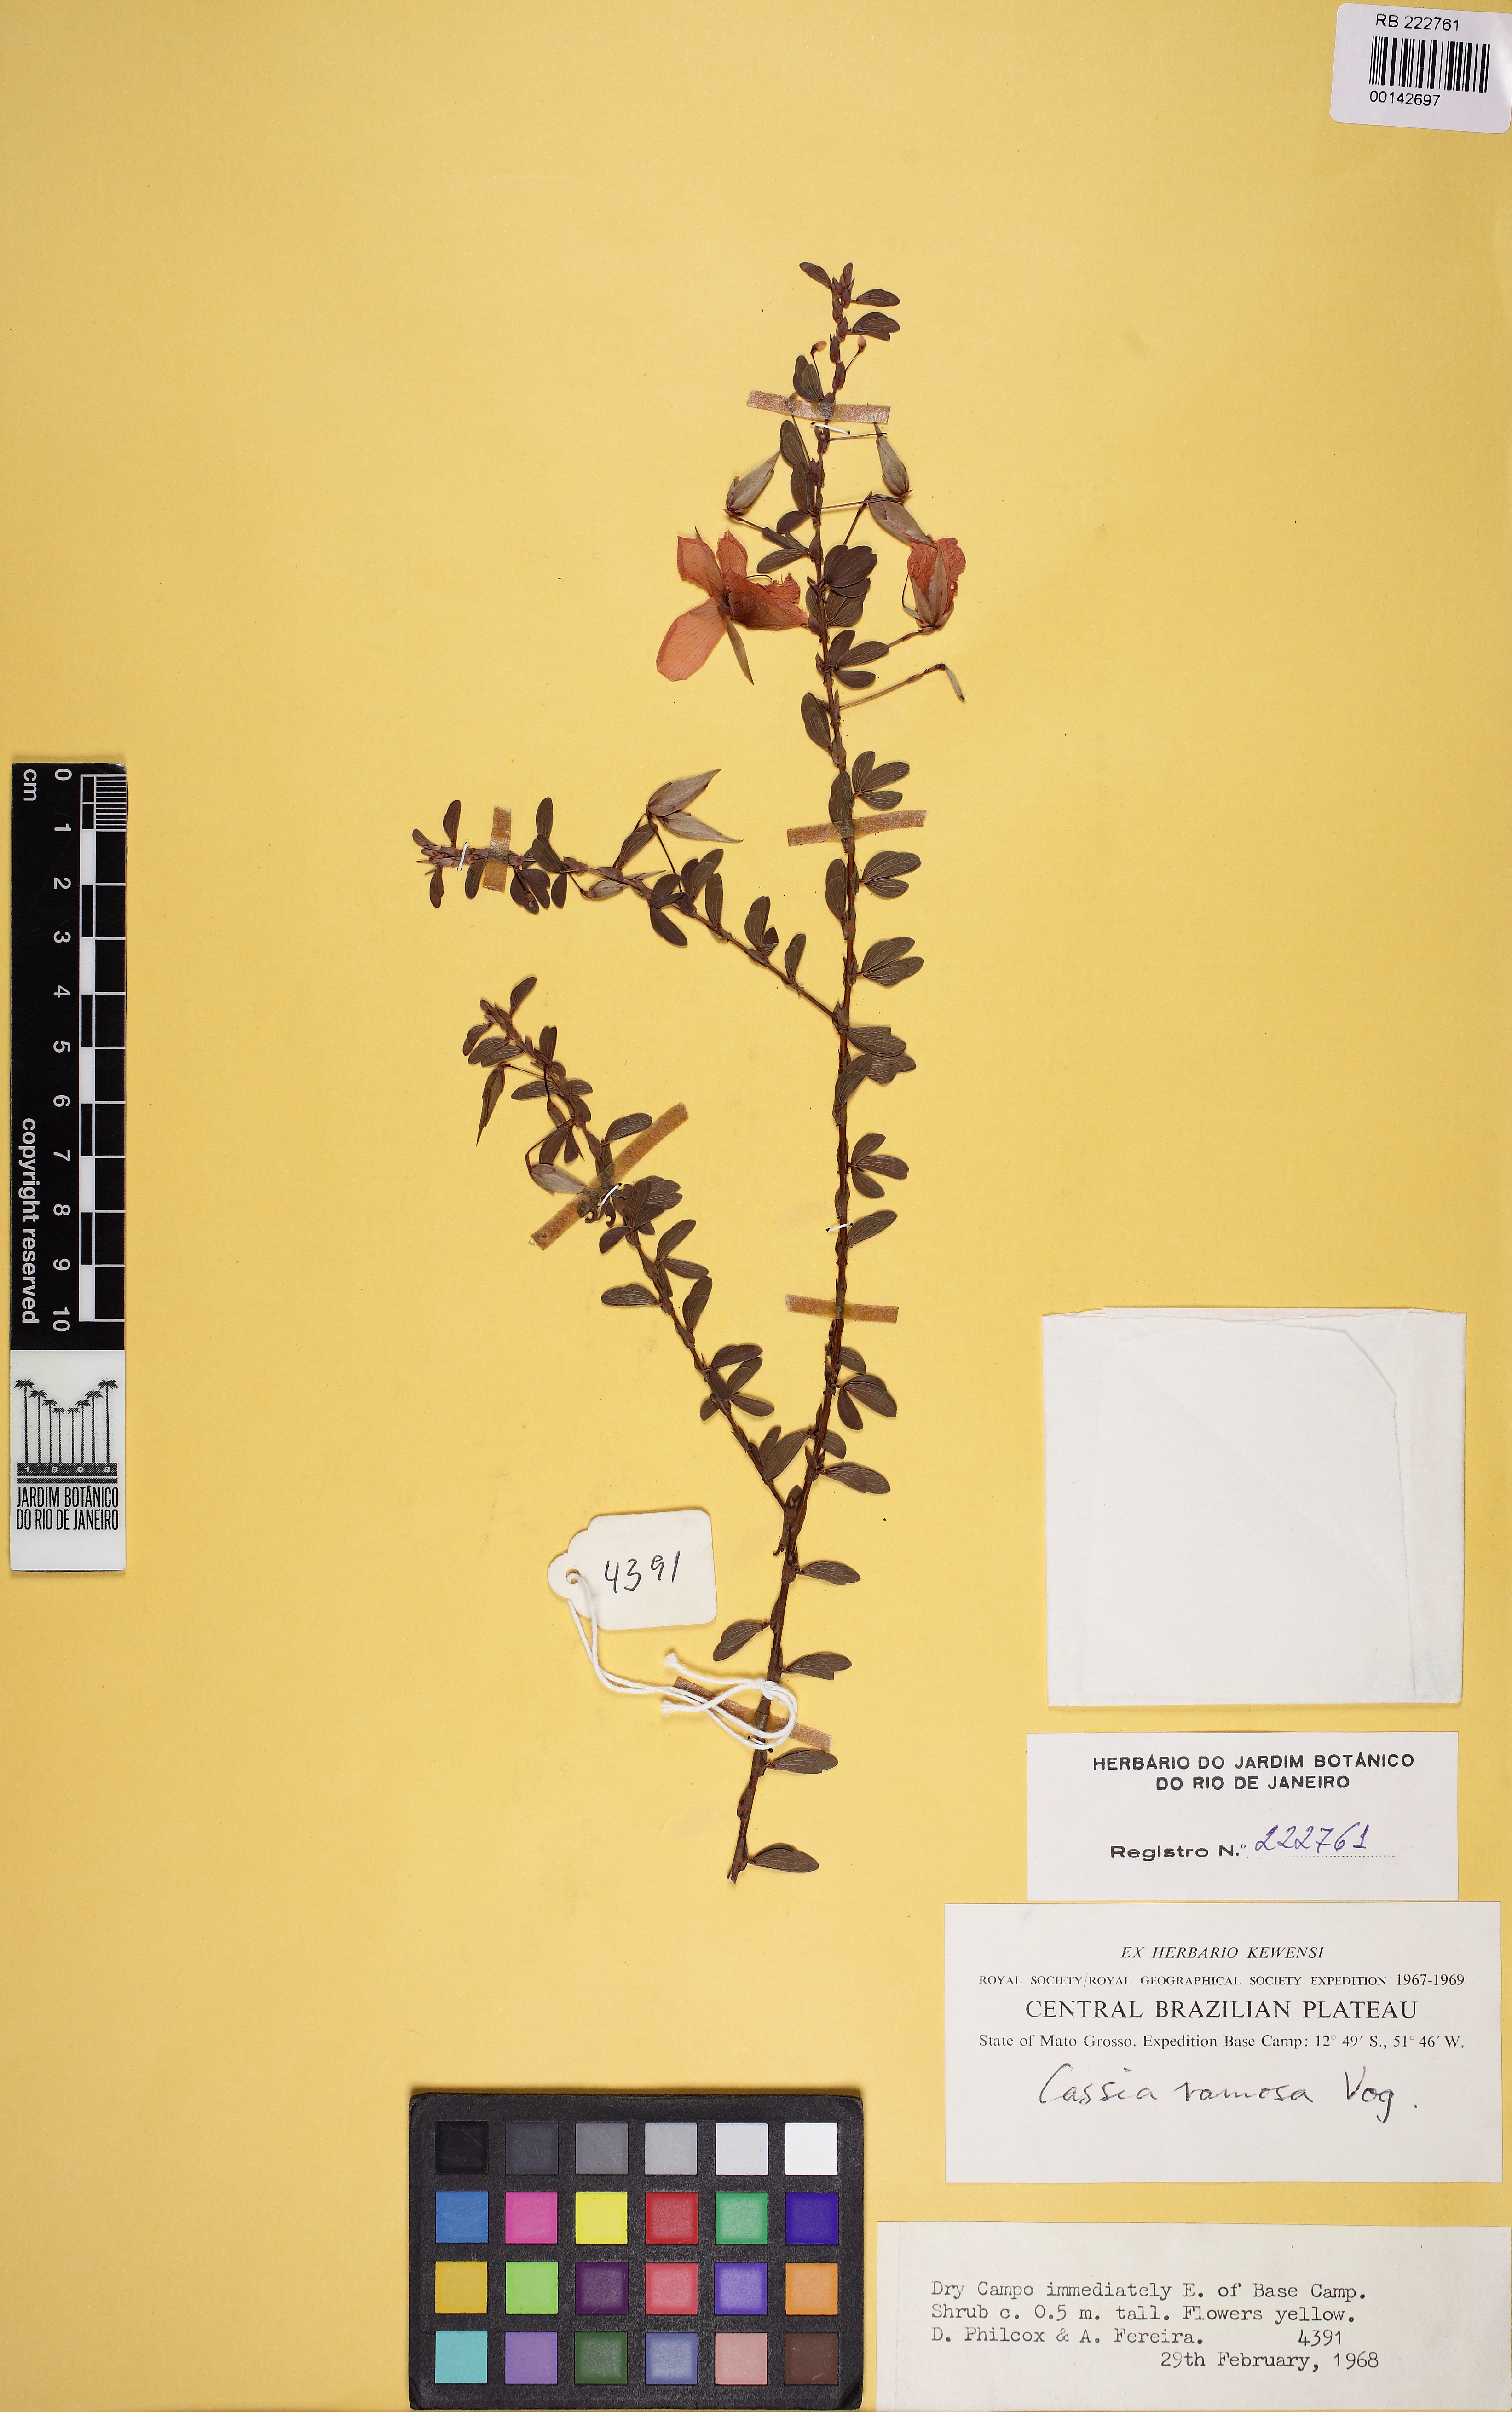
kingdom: Plantae
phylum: Tracheophyta
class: Magnoliopsida
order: Fabales
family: Fabaceae
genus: Chamaecrista
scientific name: Chamaecrista ramosa
